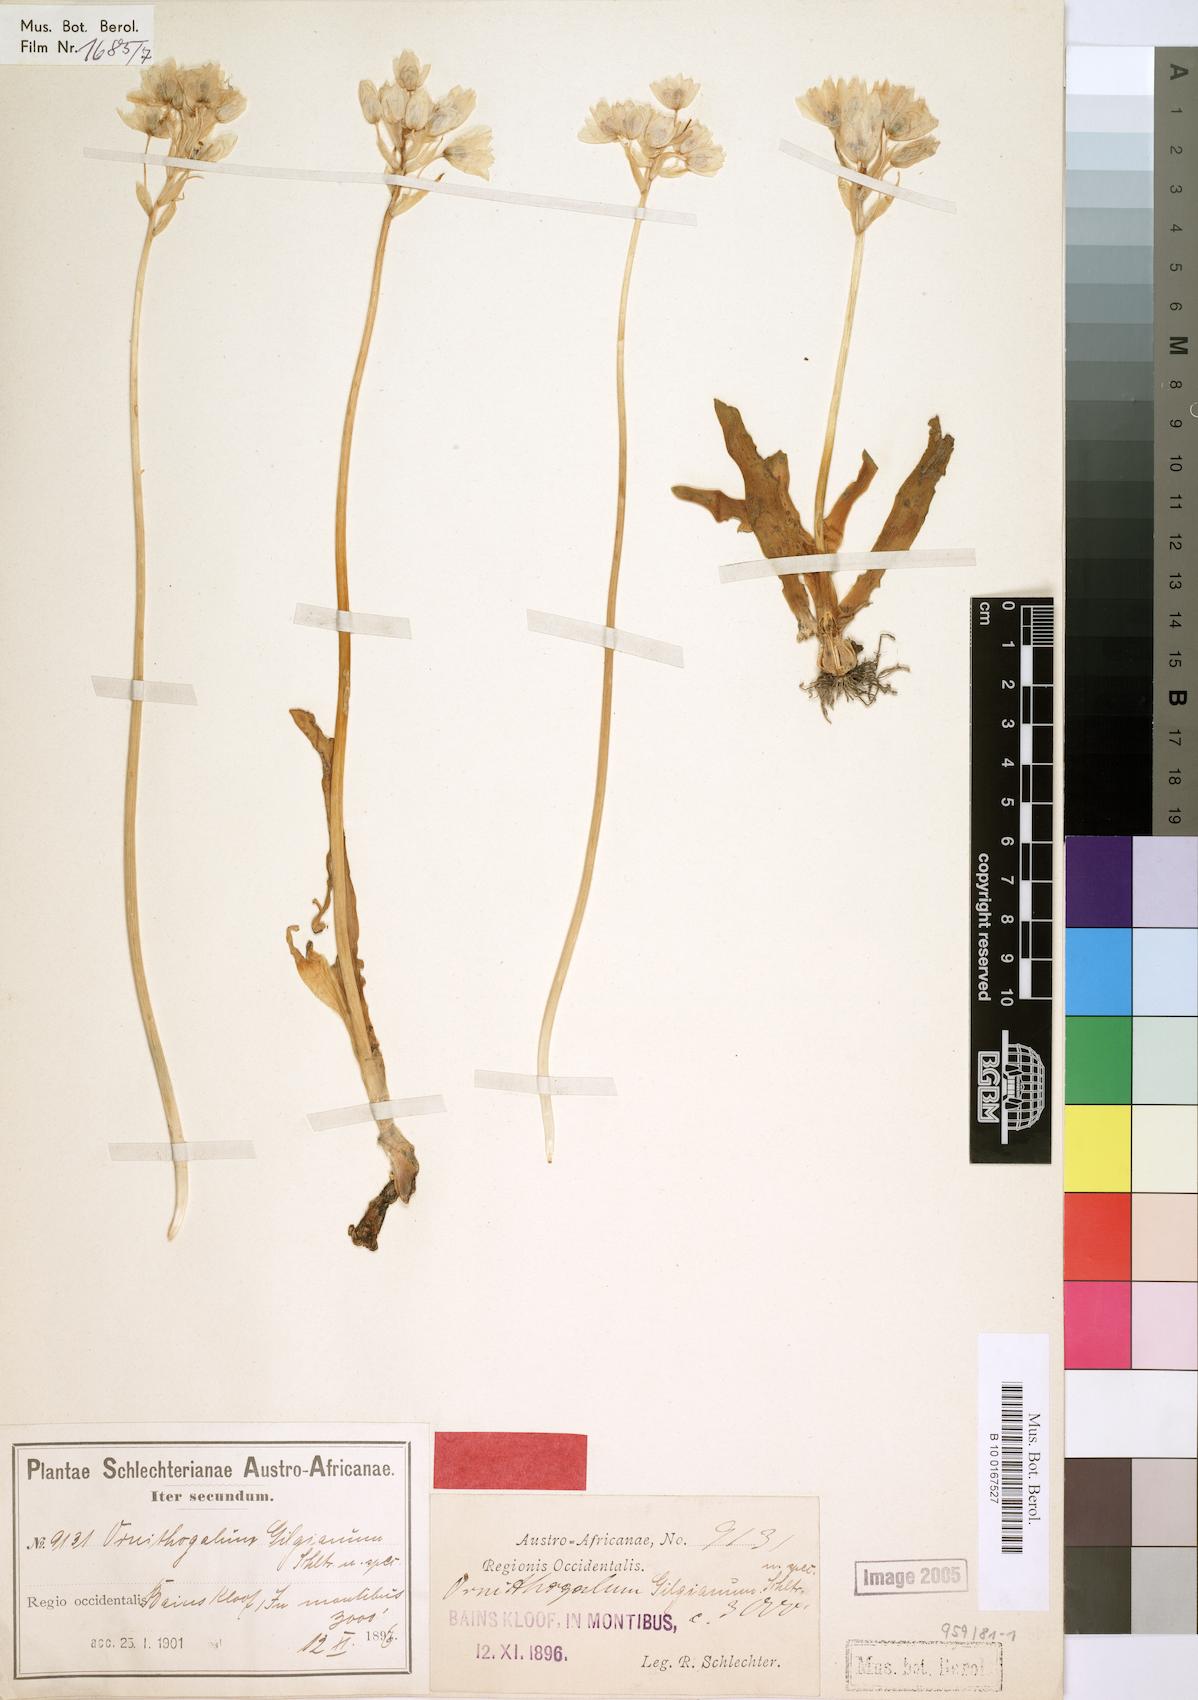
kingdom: Plantae
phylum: Tracheophyta
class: Liliopsida
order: Asparagales
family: Asparagaceae
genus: Ornithogalum
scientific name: Ornithogalum thyrsoides
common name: Chincherinchee
